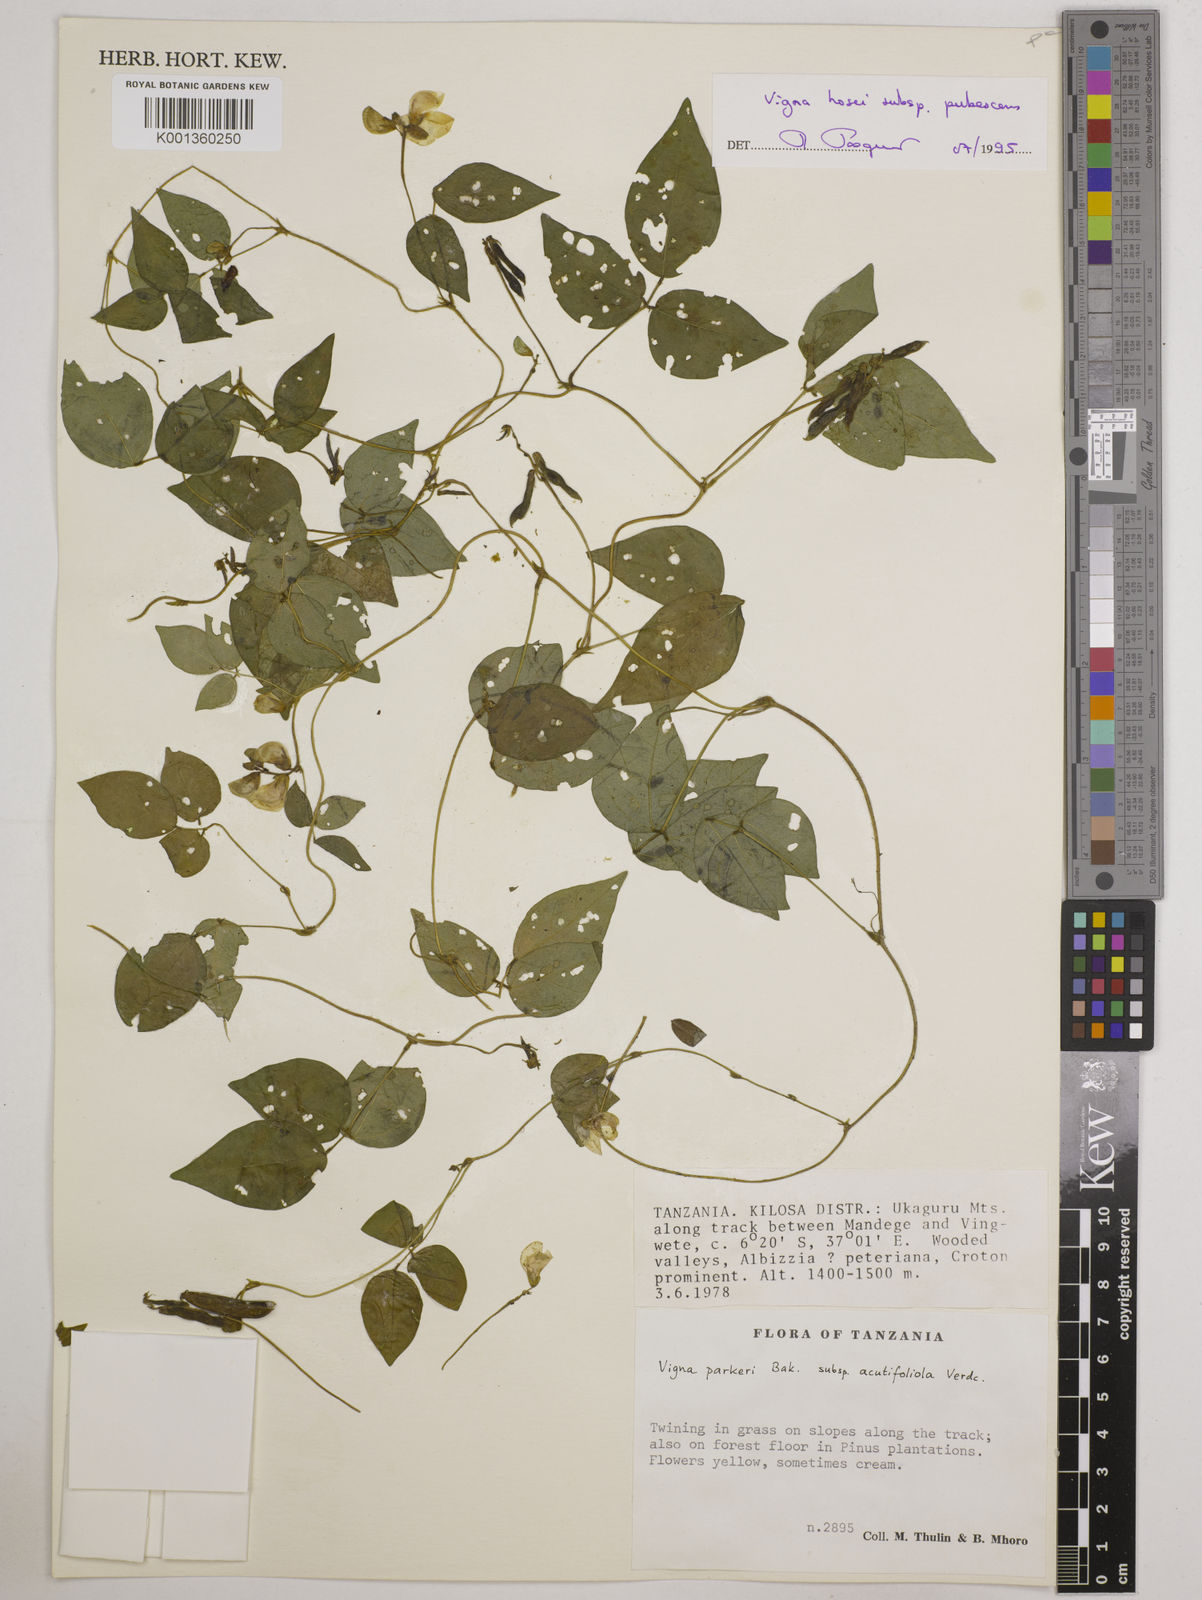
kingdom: Plantae
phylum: Tracheophyta
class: Magnoliopsida
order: Fabales
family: Fabaceae
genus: Vigna
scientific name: Vigna
